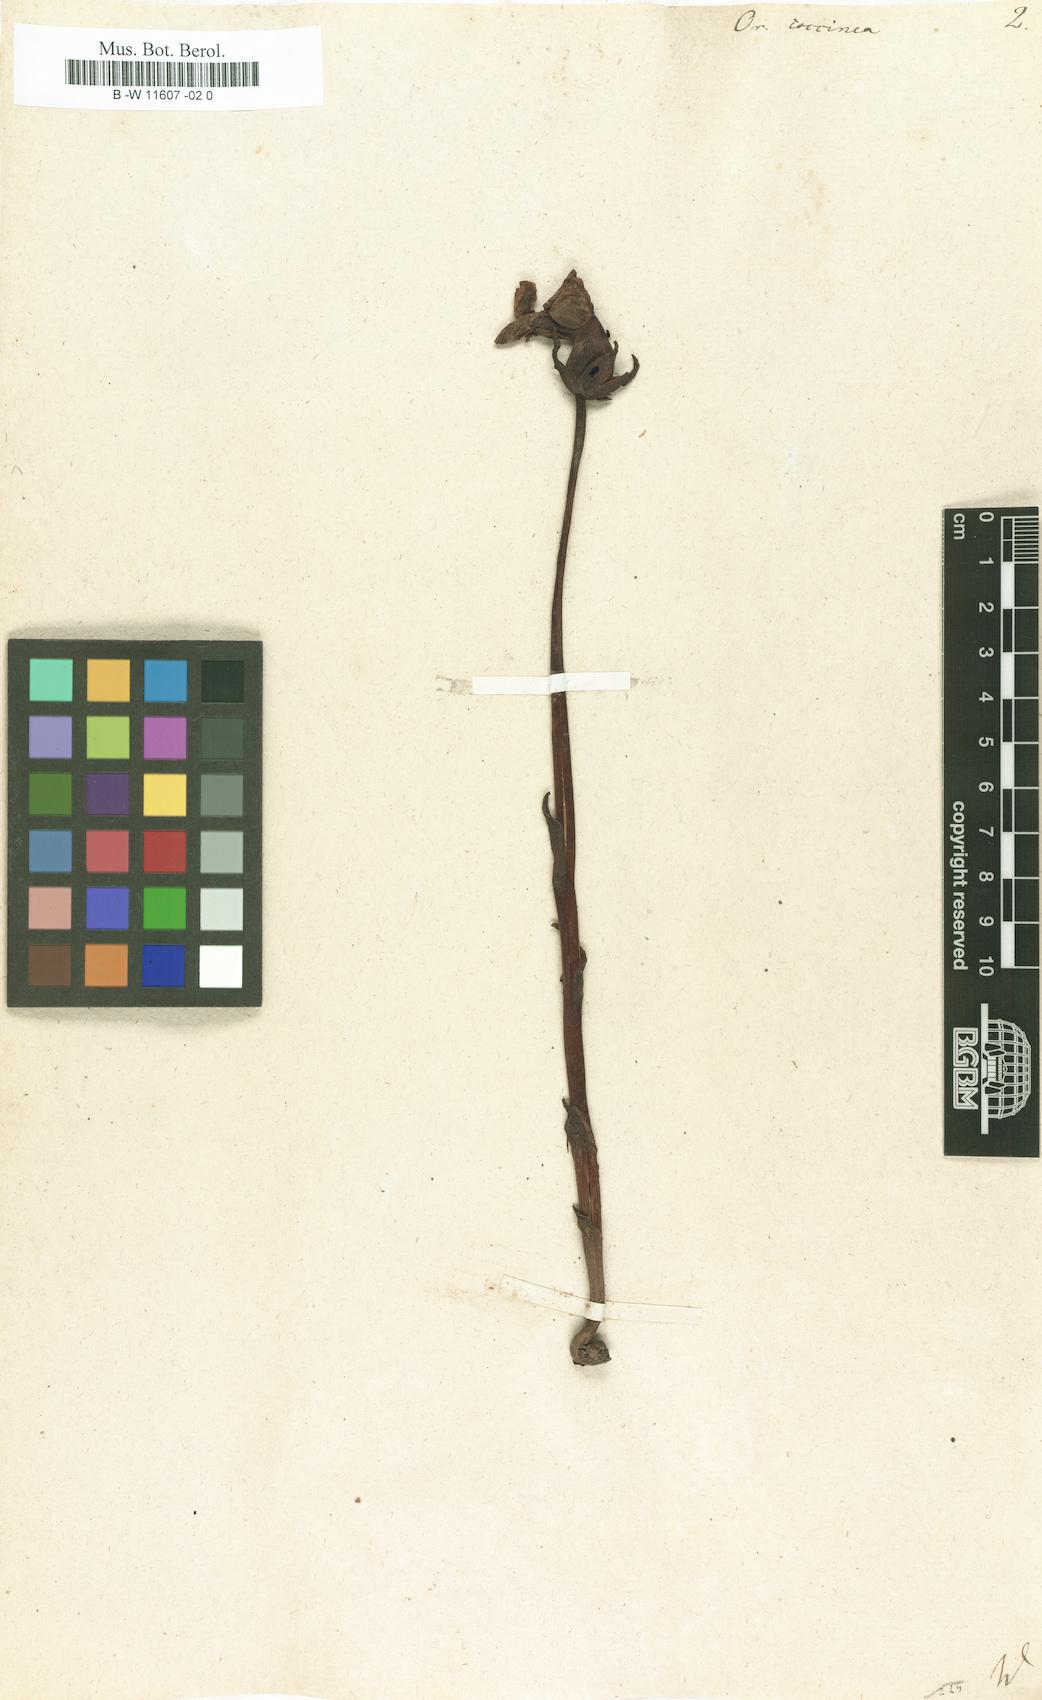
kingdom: Plantae
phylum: Tracheophyta
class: Magnoliopsida
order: Lamiales
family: Orobanchaceae
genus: Diphelypaea
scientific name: Diphelypaea coccinea
